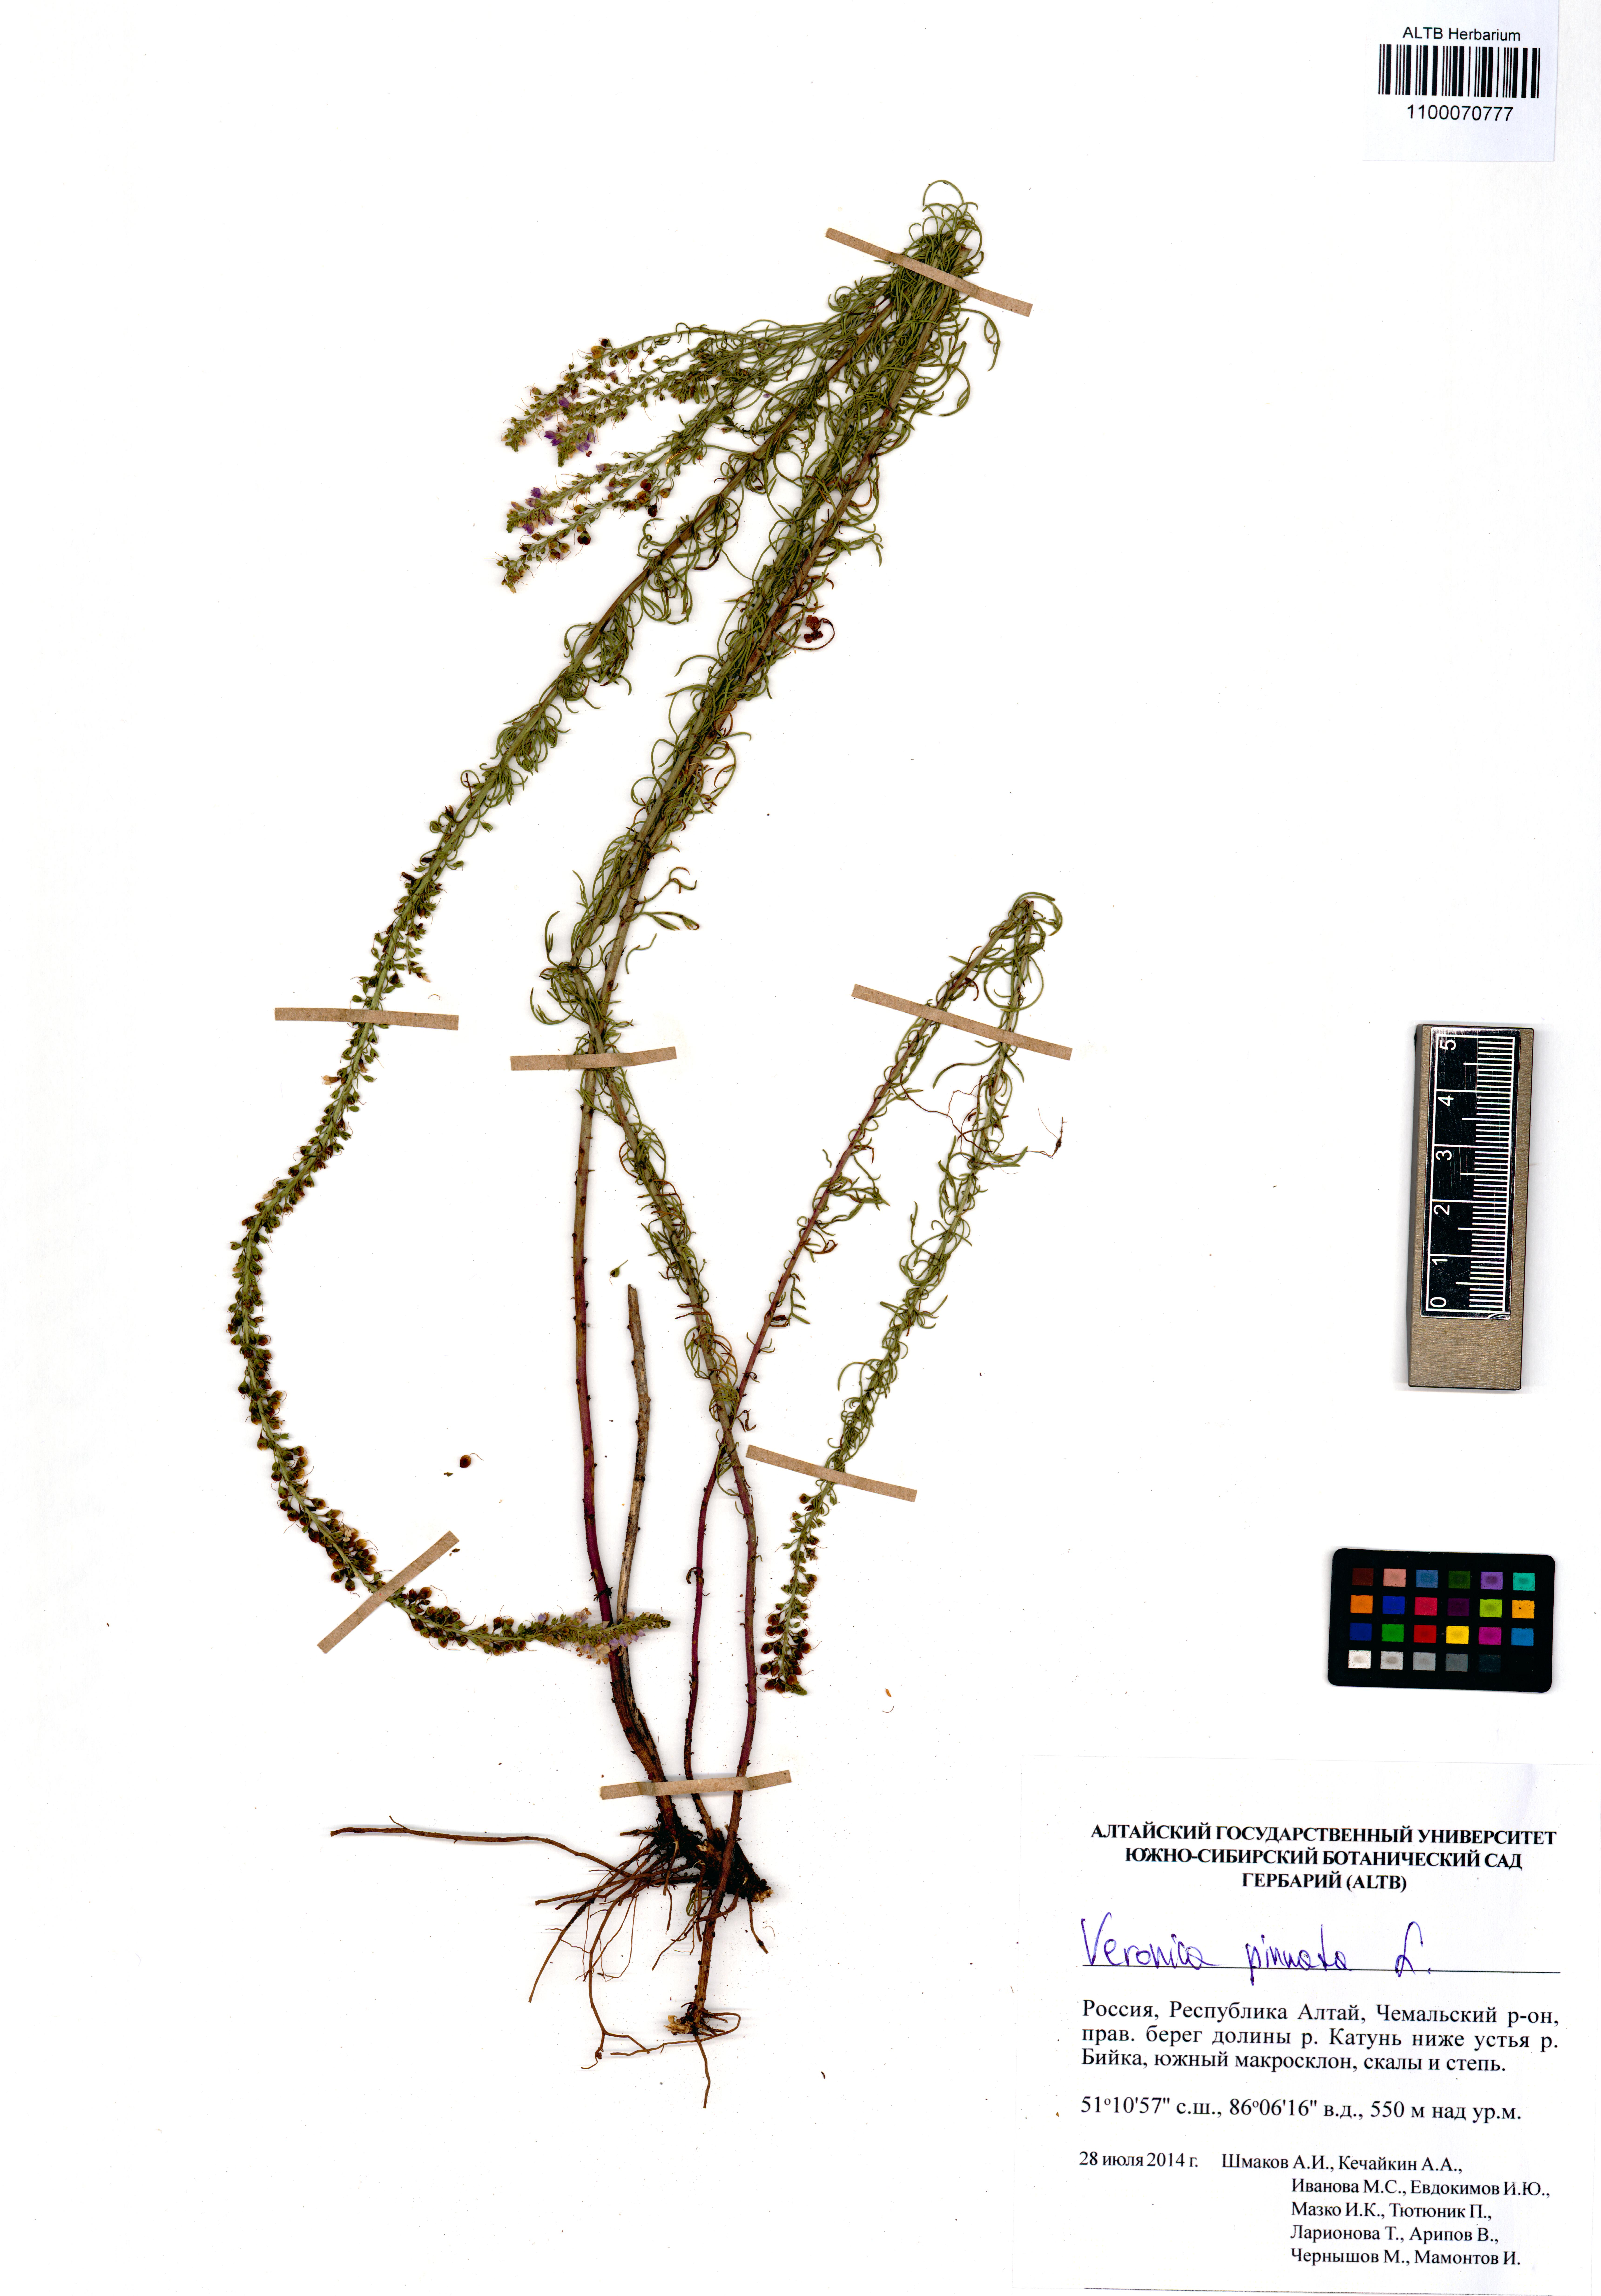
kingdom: Plantae
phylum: Tracheophyta
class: Magnoliopsida
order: Lamiales
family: Plantaginaceae
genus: Veronica
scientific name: Veronica pinnata
